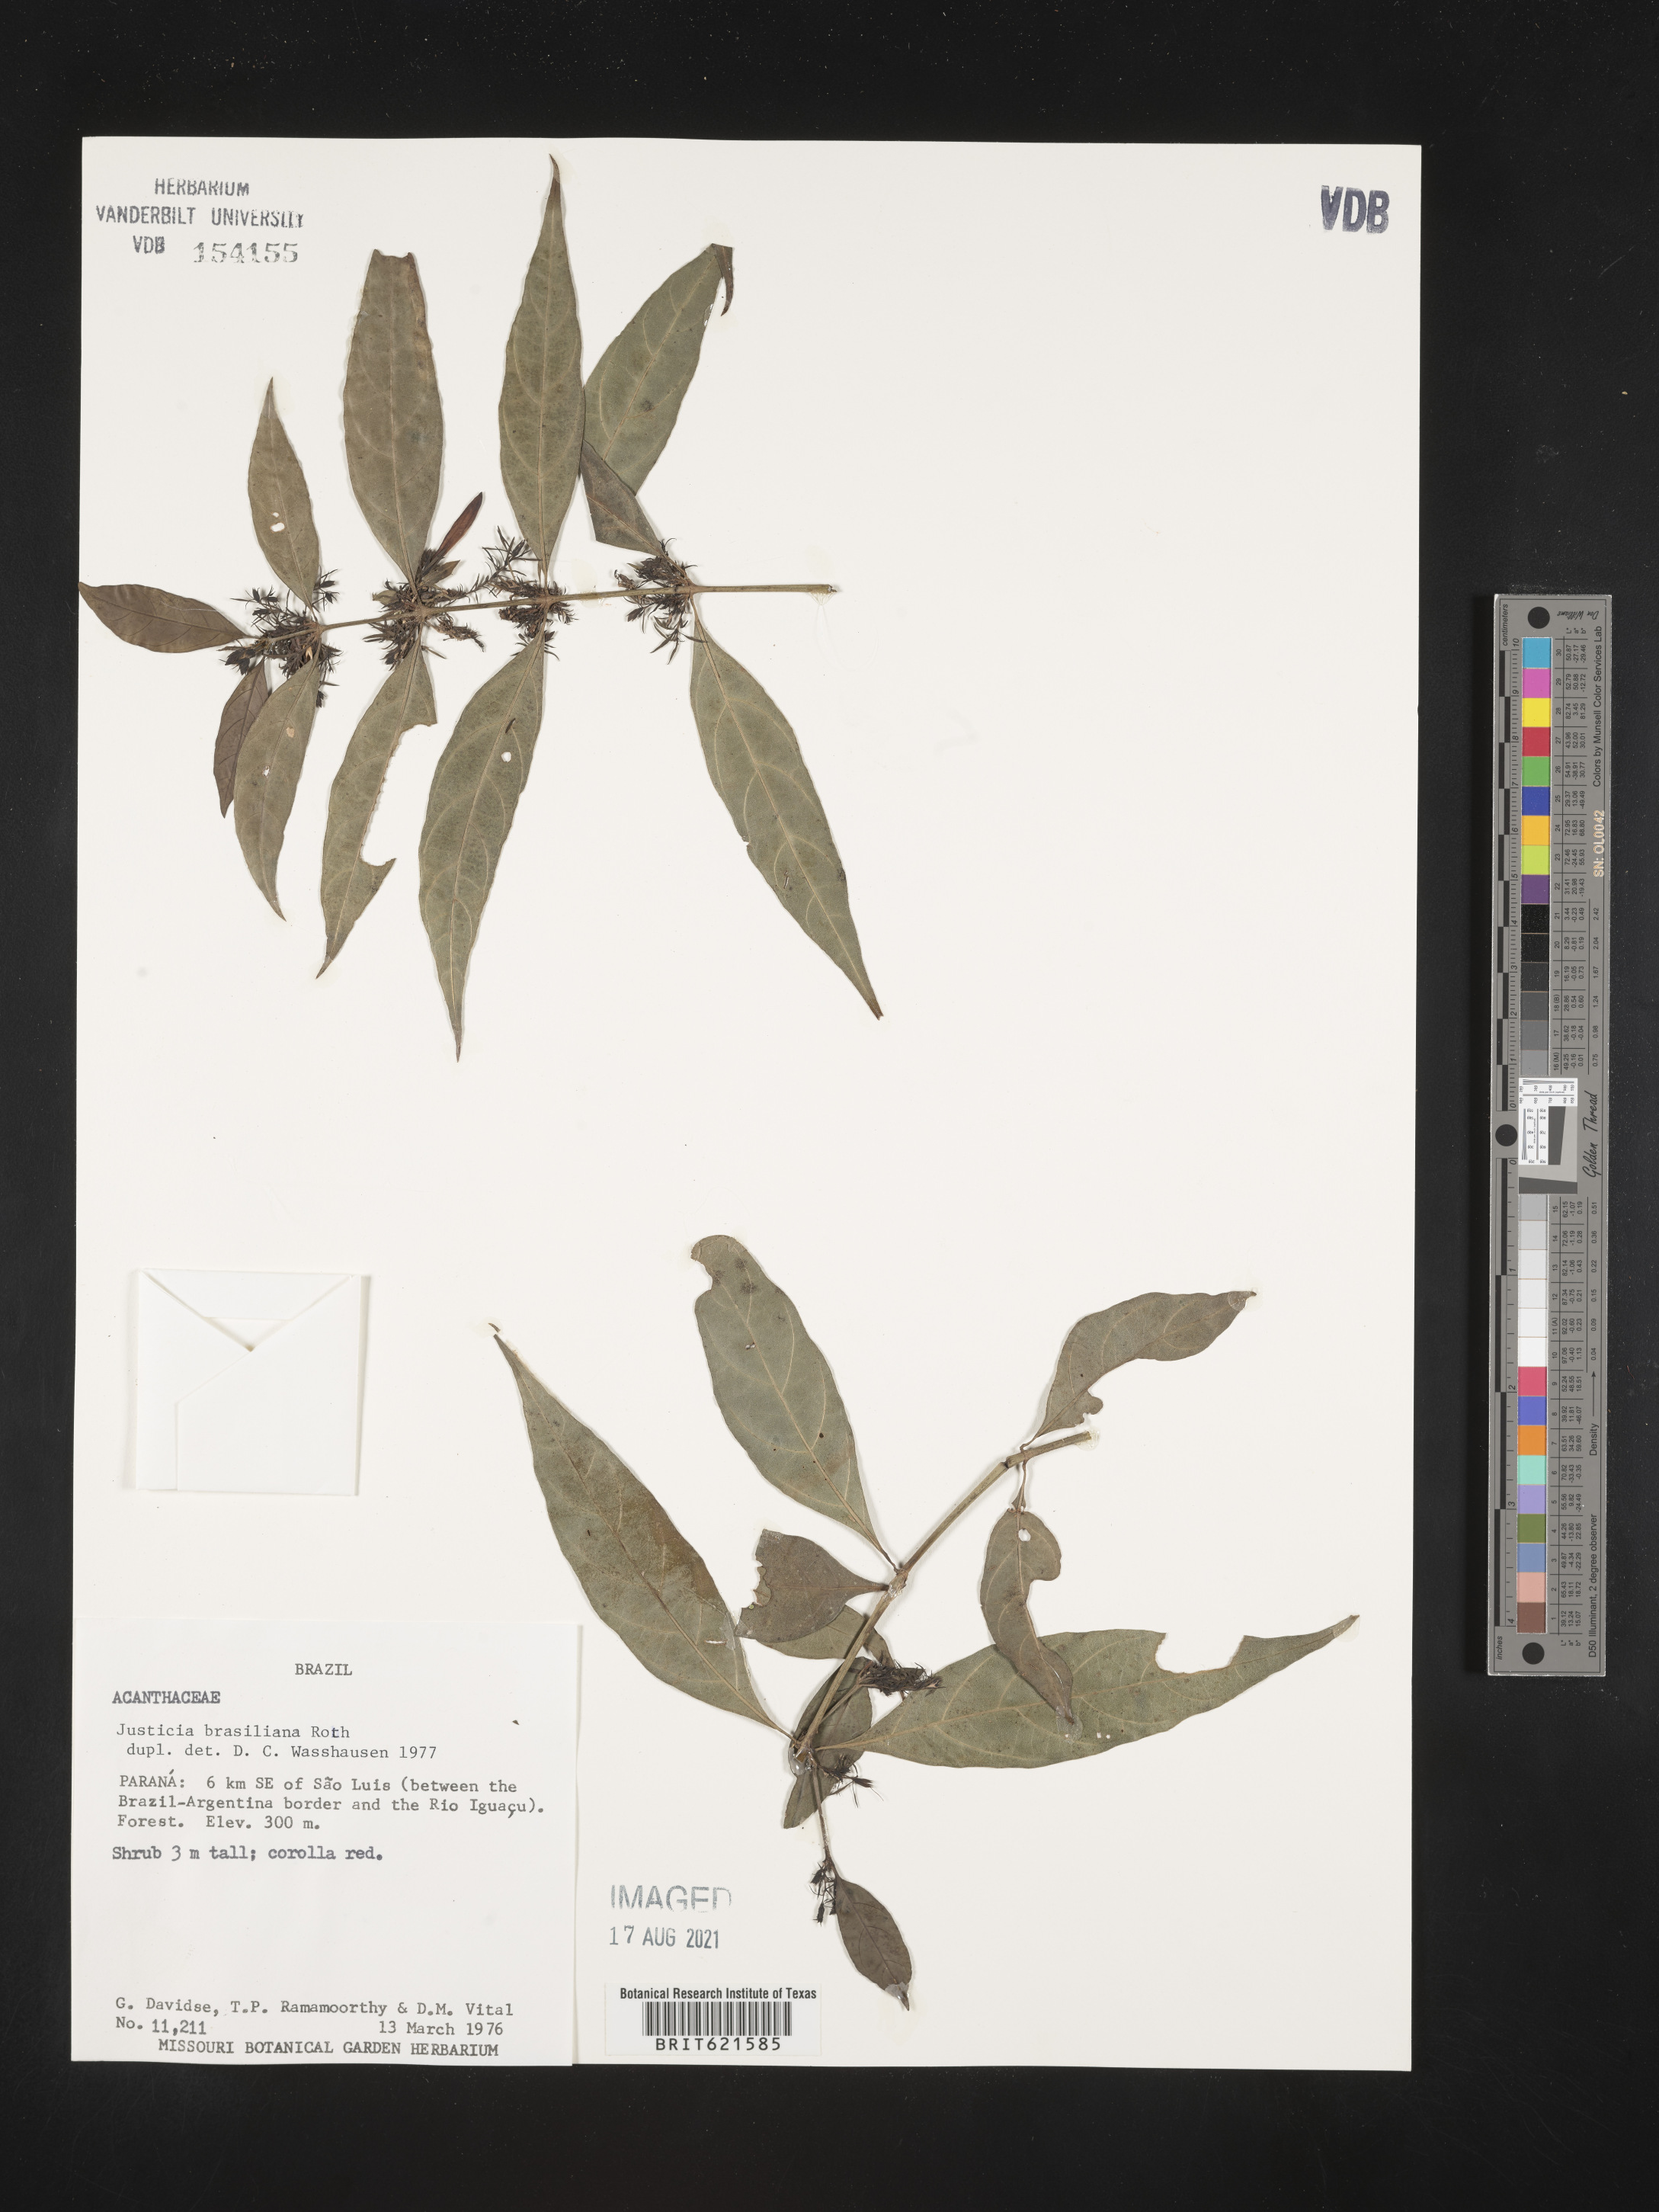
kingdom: Plantae
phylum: Tracheophyta
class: Magnoliopsida
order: Lamiales
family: Acanthaceae
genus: Justicia
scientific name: Justicia brasiliana
